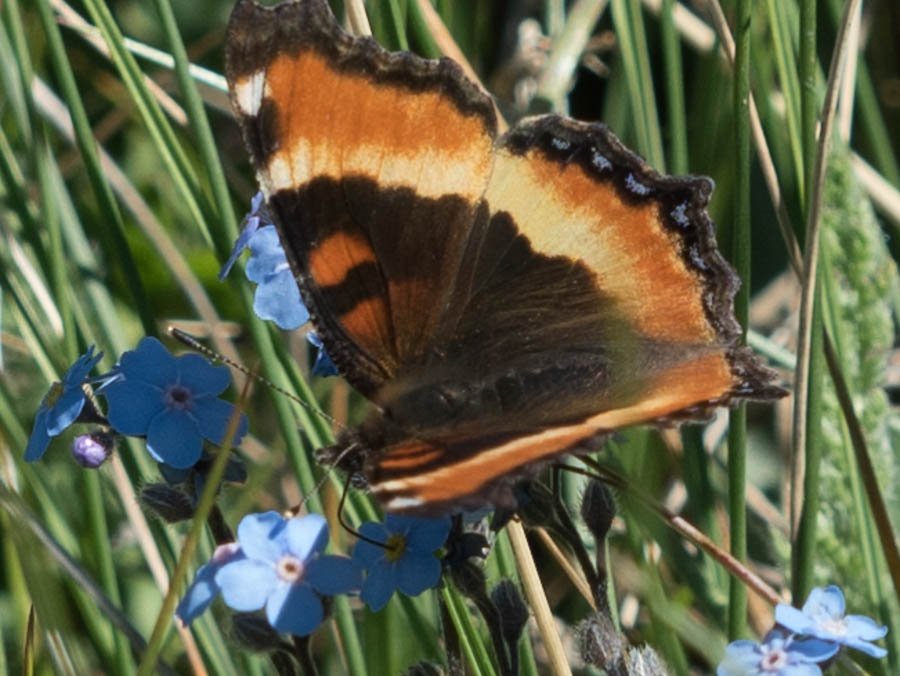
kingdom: Animalia
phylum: Arthropoda
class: Insecta
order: Lepidoptera
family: Nymphalidae
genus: Aglais
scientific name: Aglais milberti
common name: Milbert's Tortoiseshell
